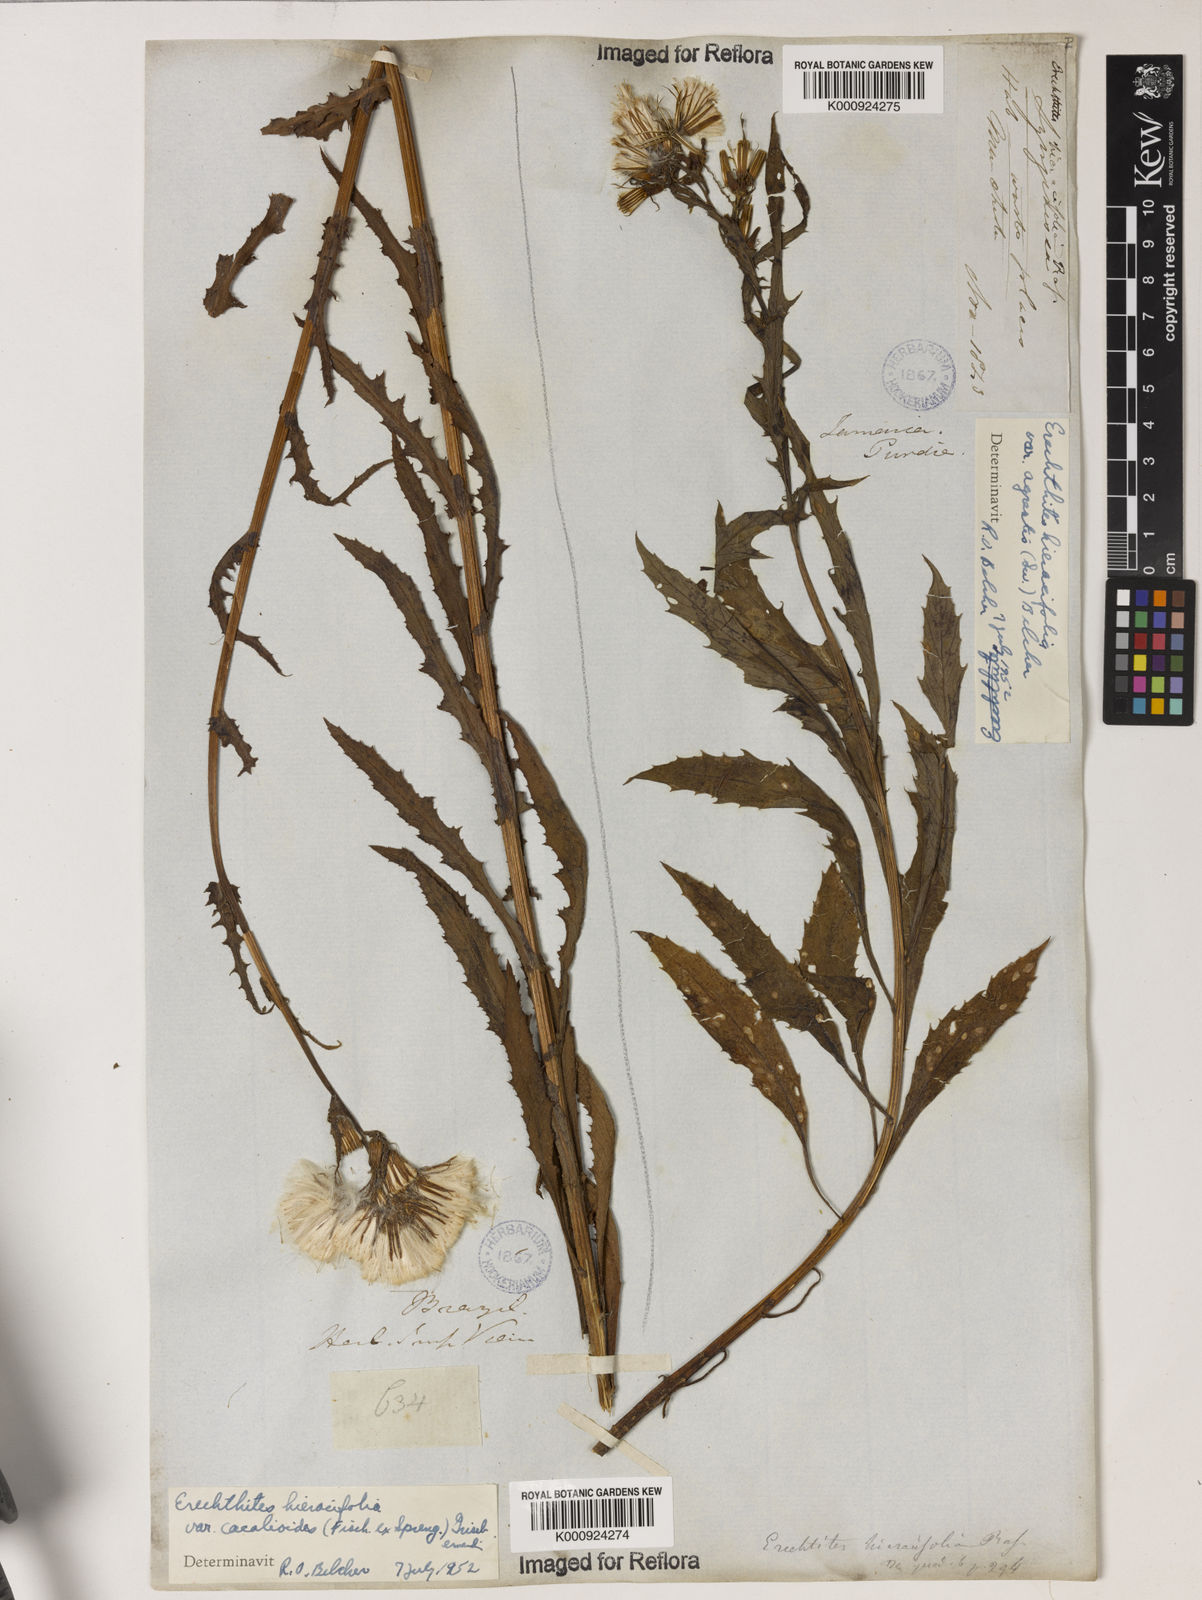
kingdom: Plantae
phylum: Tracheophyta
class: Magnoliopsida
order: Asterales
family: Asteraceae
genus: Erechtites
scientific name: Erechtites hieraciifolius
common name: American burnweed
